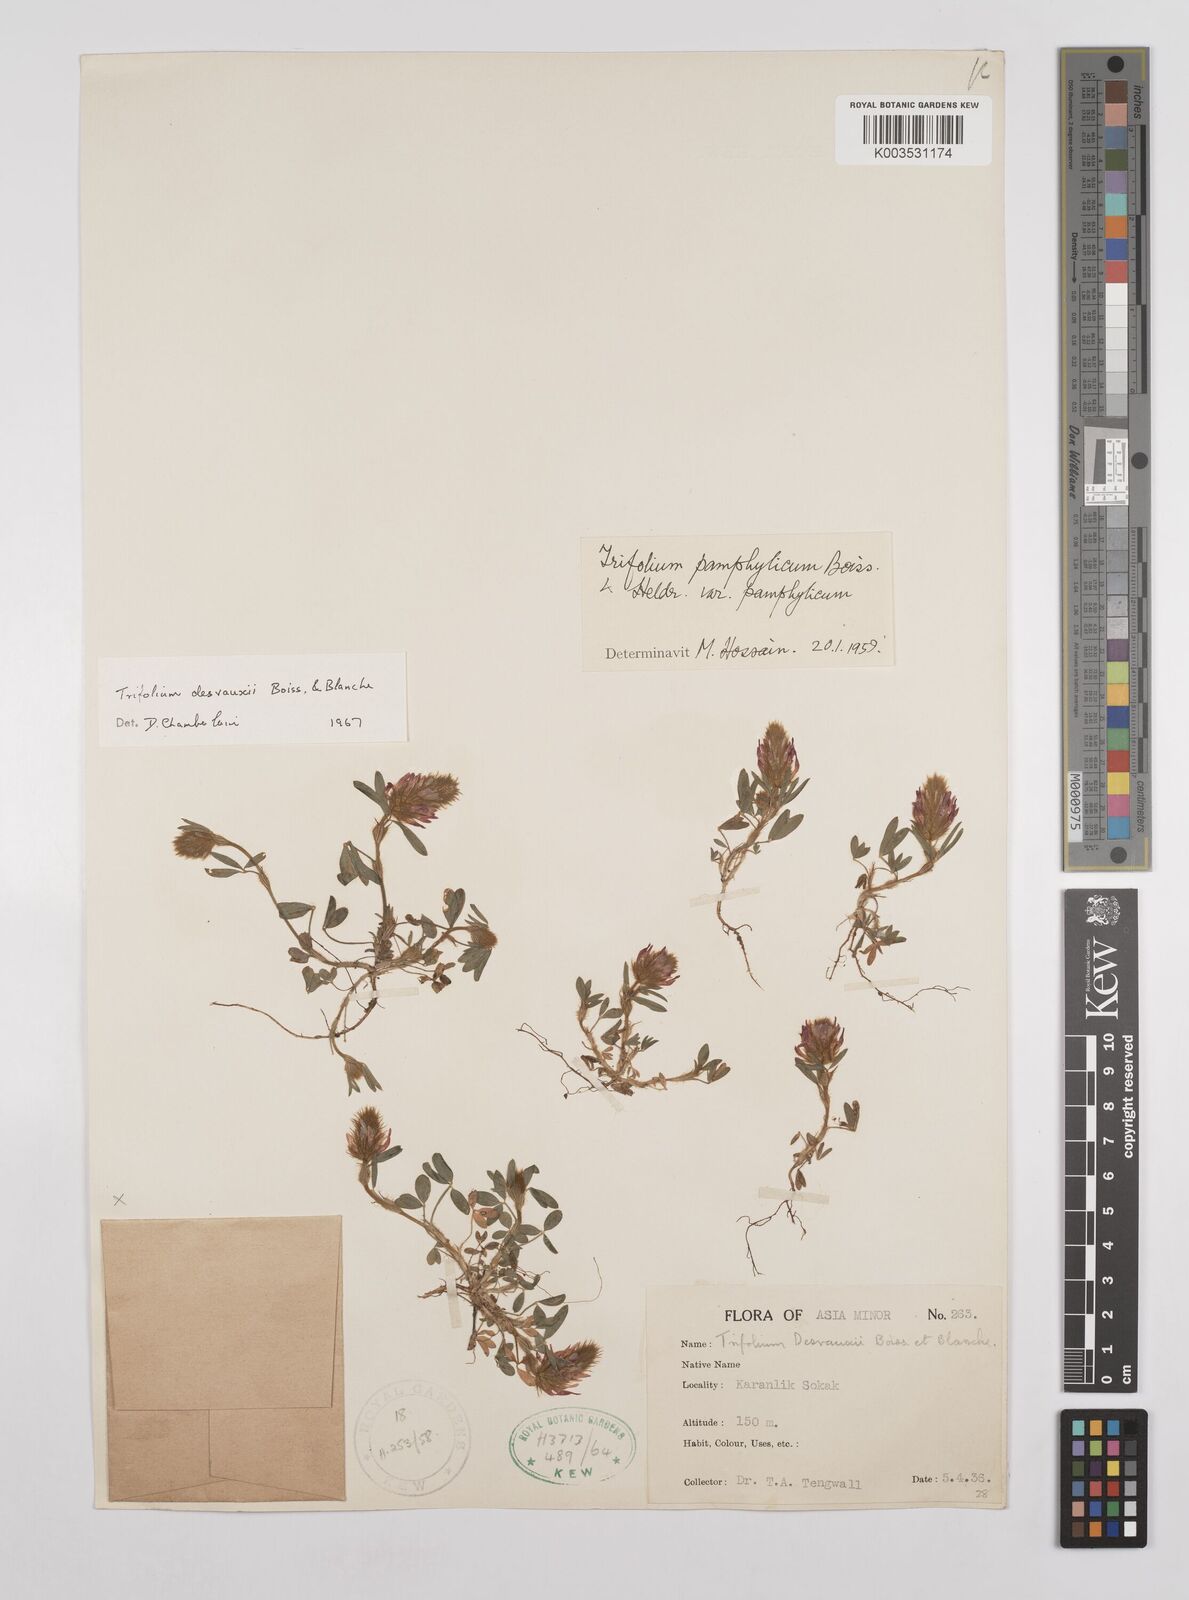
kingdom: Plantae
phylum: Tracheophyta
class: Magnoliopsida
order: Fabales
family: Fabaceae
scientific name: Fabaceae
